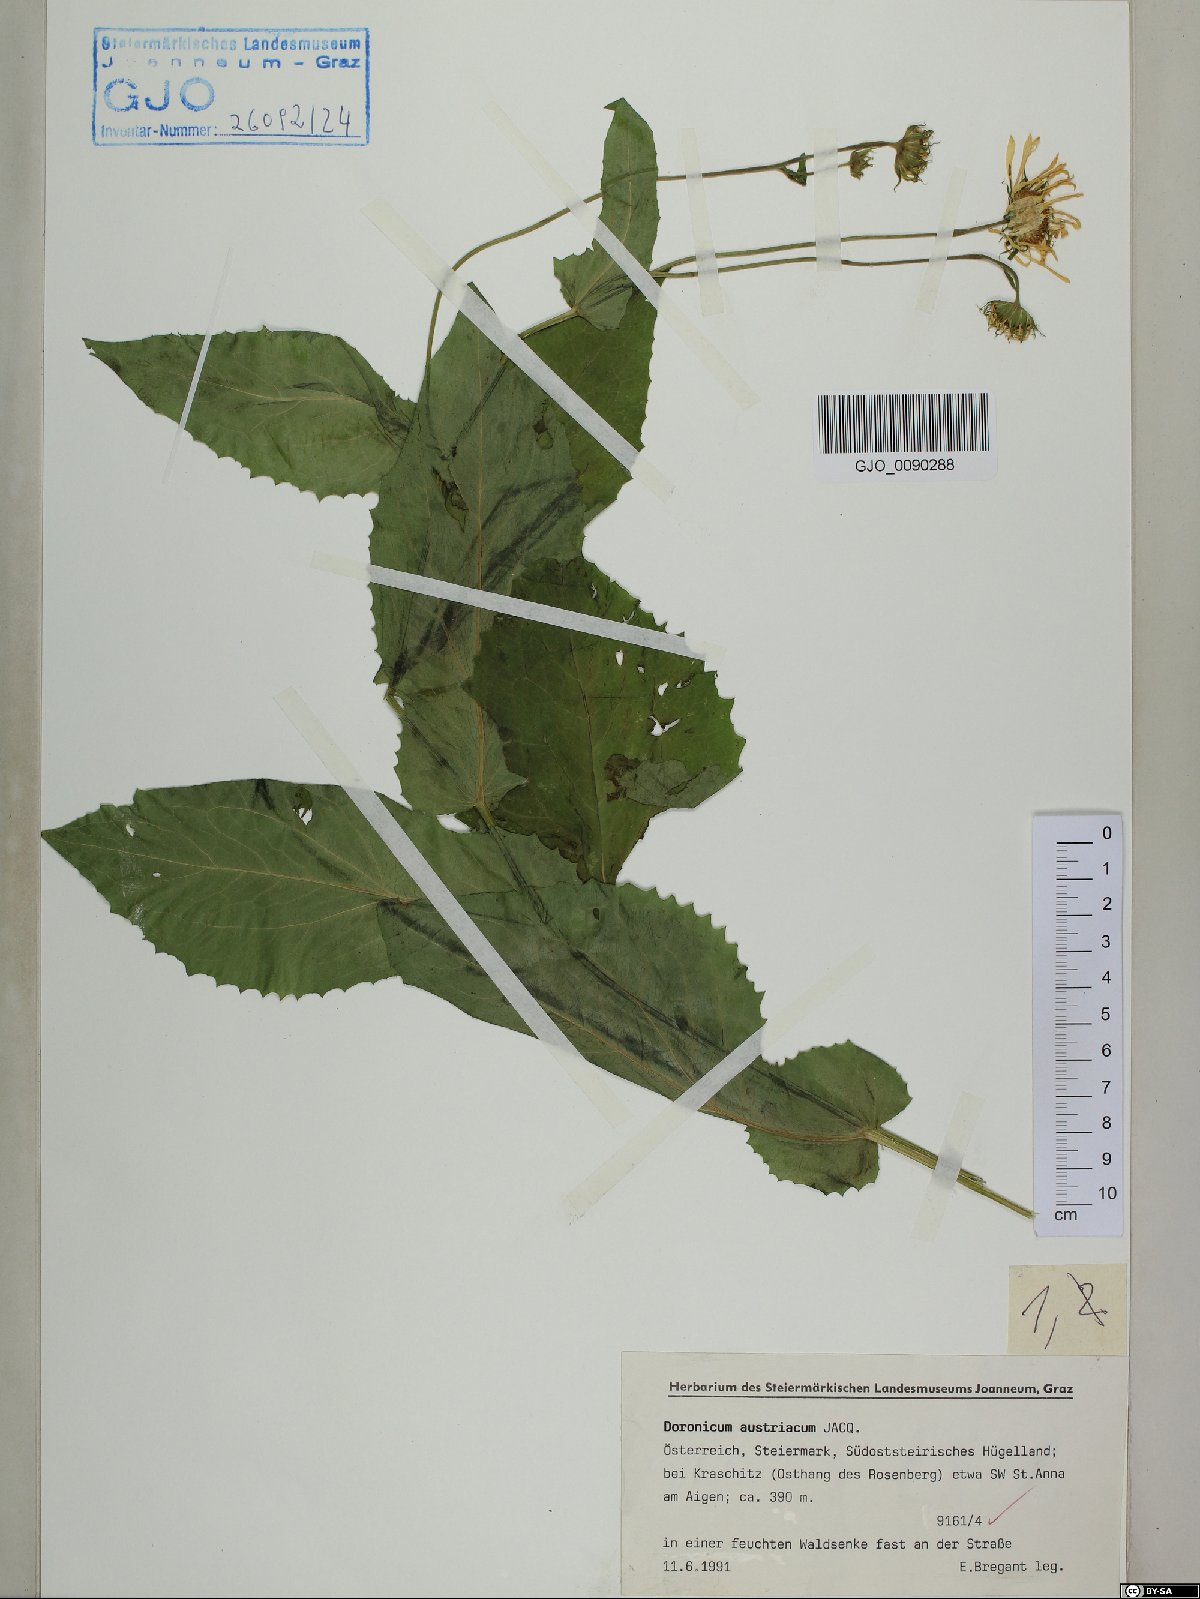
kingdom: Plantae
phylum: Tracheophyta
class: Magnoliopsida
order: Asterales
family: Asteraceae
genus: Doronicum
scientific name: Doronicum austriacum
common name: Austrian leopard's-bane
